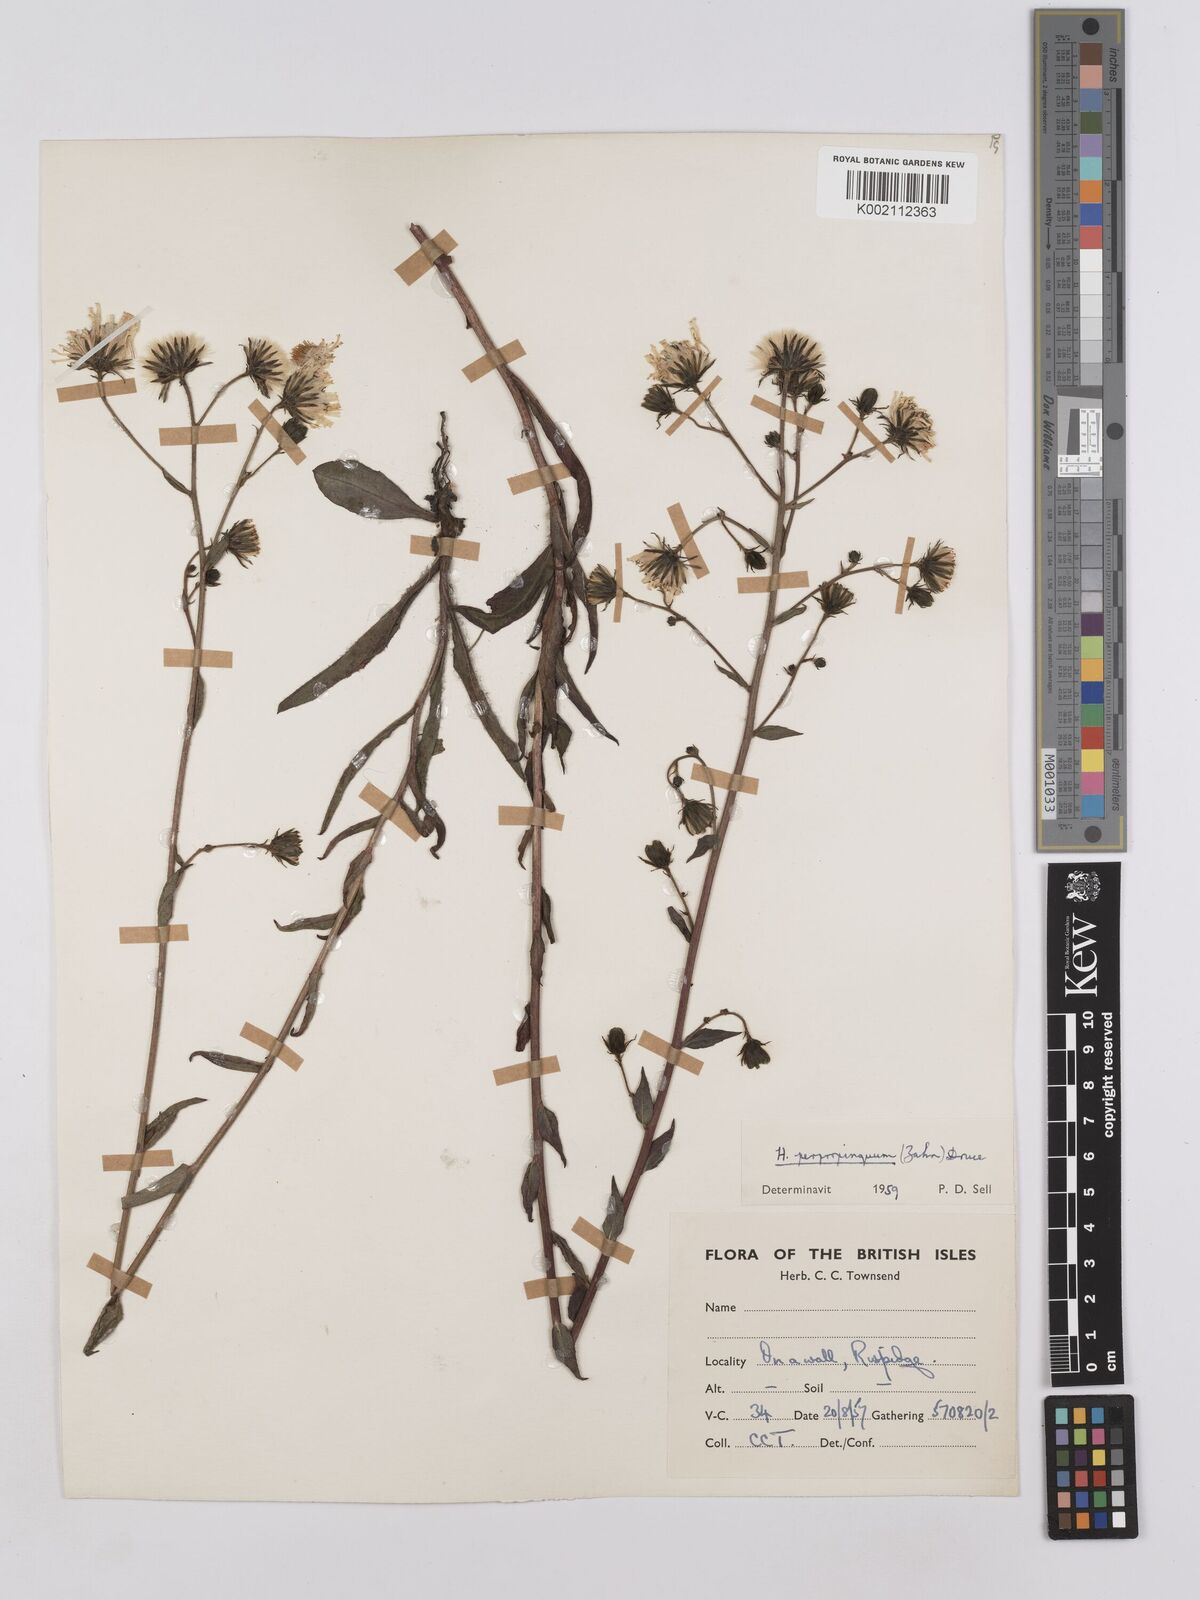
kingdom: Plantae
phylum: Tracheophyta
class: Magnoliopsida
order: Asterales
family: Asteraceae
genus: Hieracium
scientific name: Hieracium sabaudum
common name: New england hawkweed
